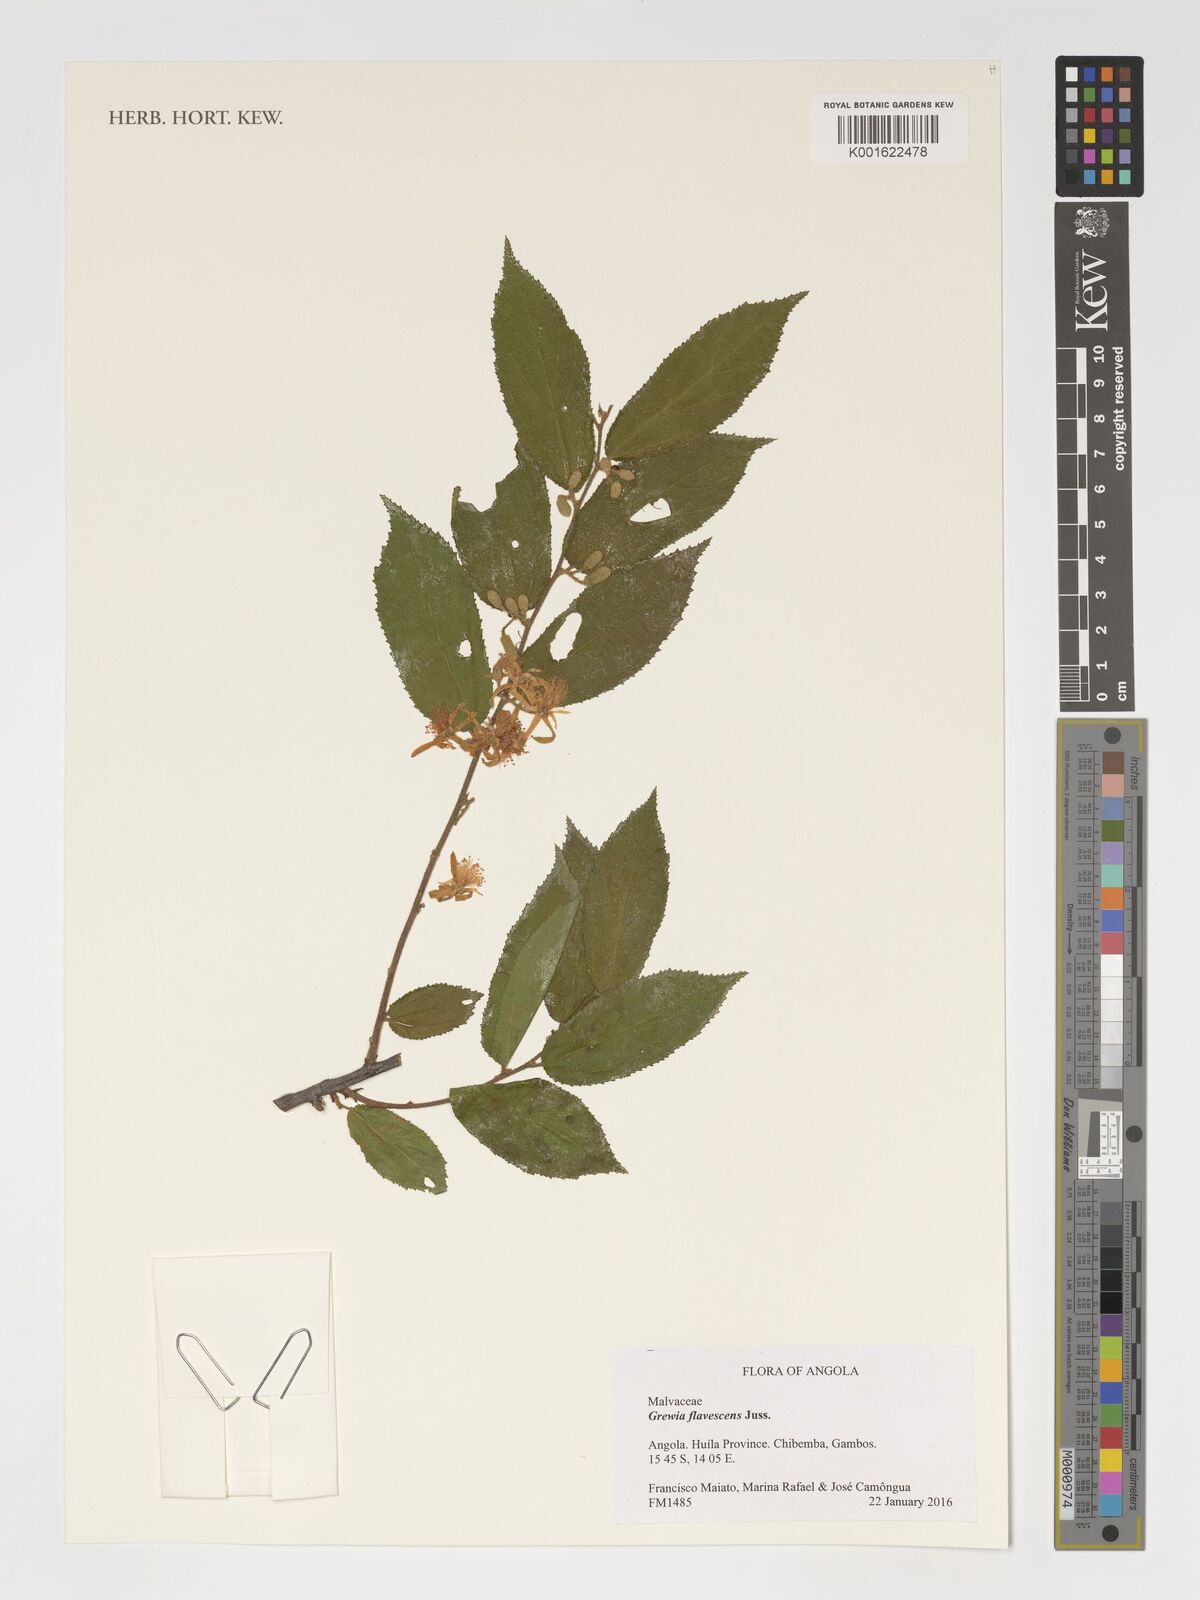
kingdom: Plantae
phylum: Tracheophyta
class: Magnoliopsida
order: Malvales
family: Malvaceae
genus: Grewia
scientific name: Grewia flavescens
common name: Sandpaper raisin
